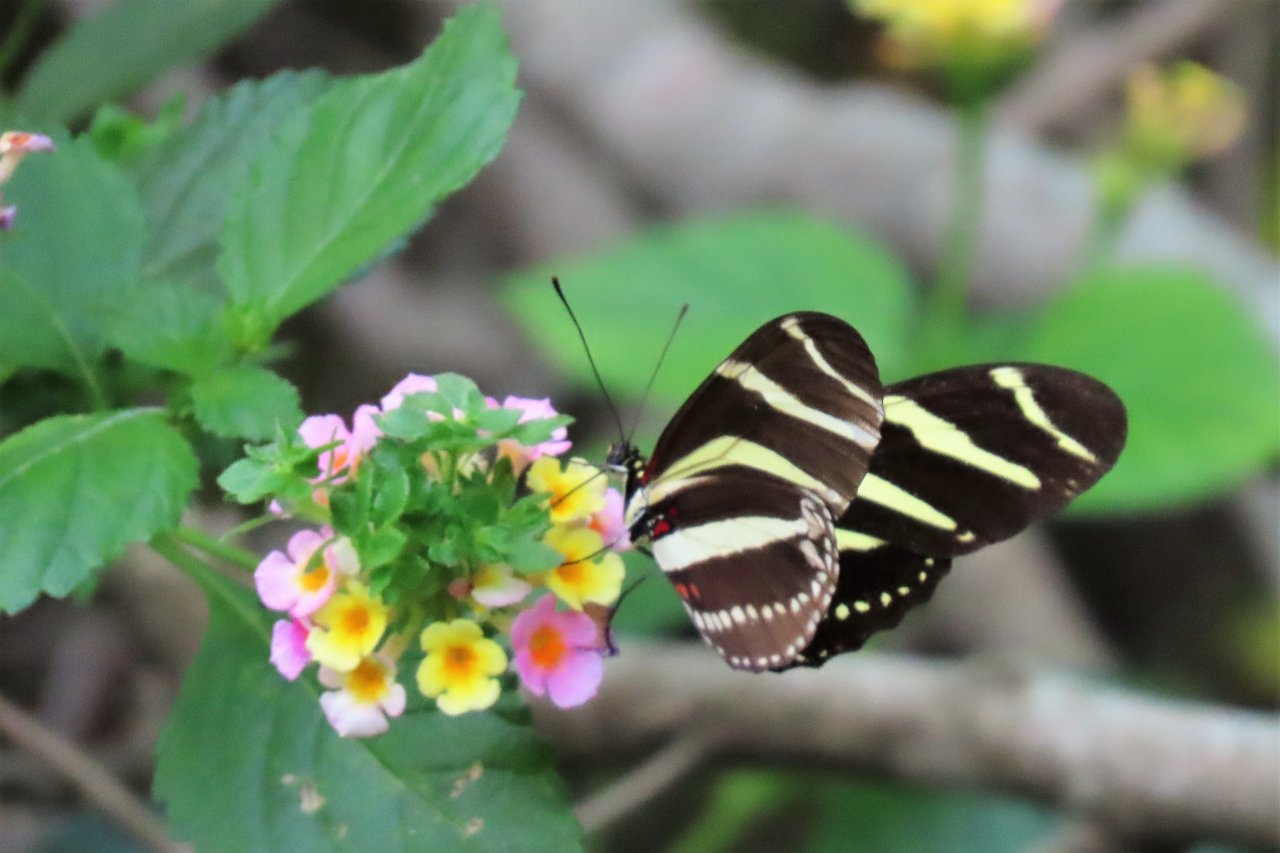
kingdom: Animalia
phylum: Arthropoda
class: Insecta
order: Lepidoptera
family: Nymphalidae
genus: Heliconius
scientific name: Heliconius charithonia
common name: Zebra Longwing
